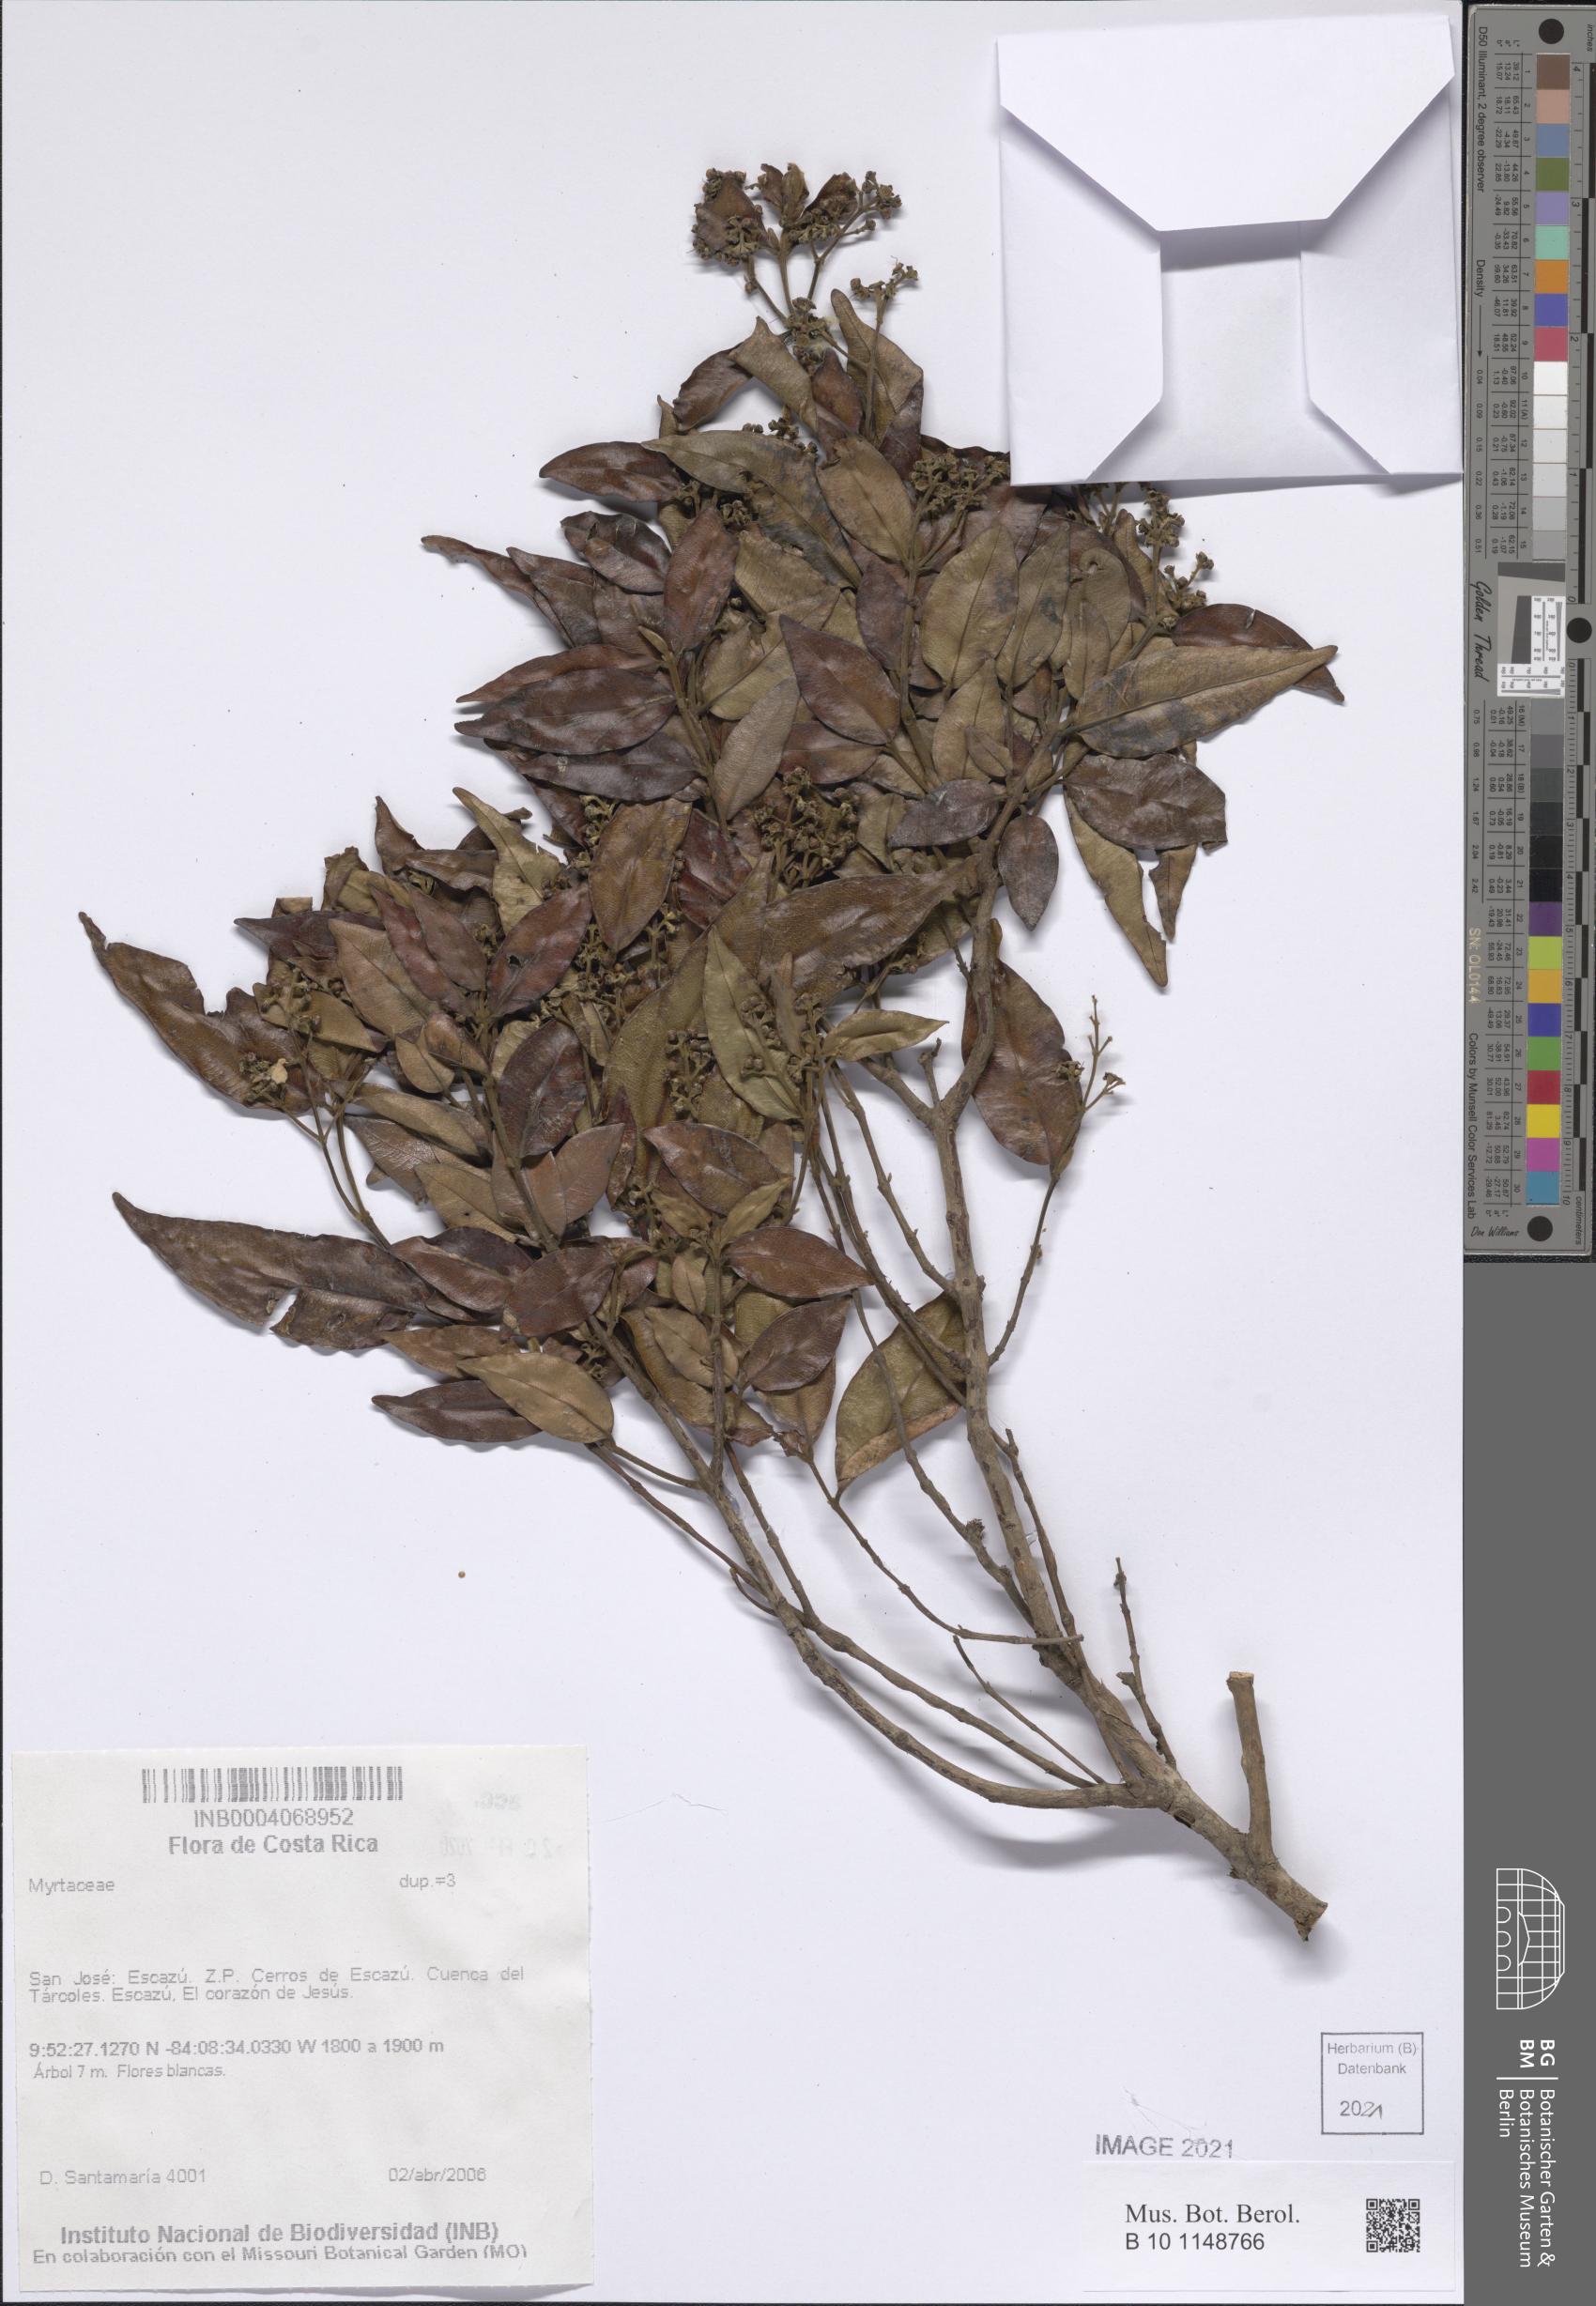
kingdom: Plantae
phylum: Tracheophyta
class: Magnoliopsida
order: Myrtales
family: Myrtaceae
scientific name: Myrtaceae
